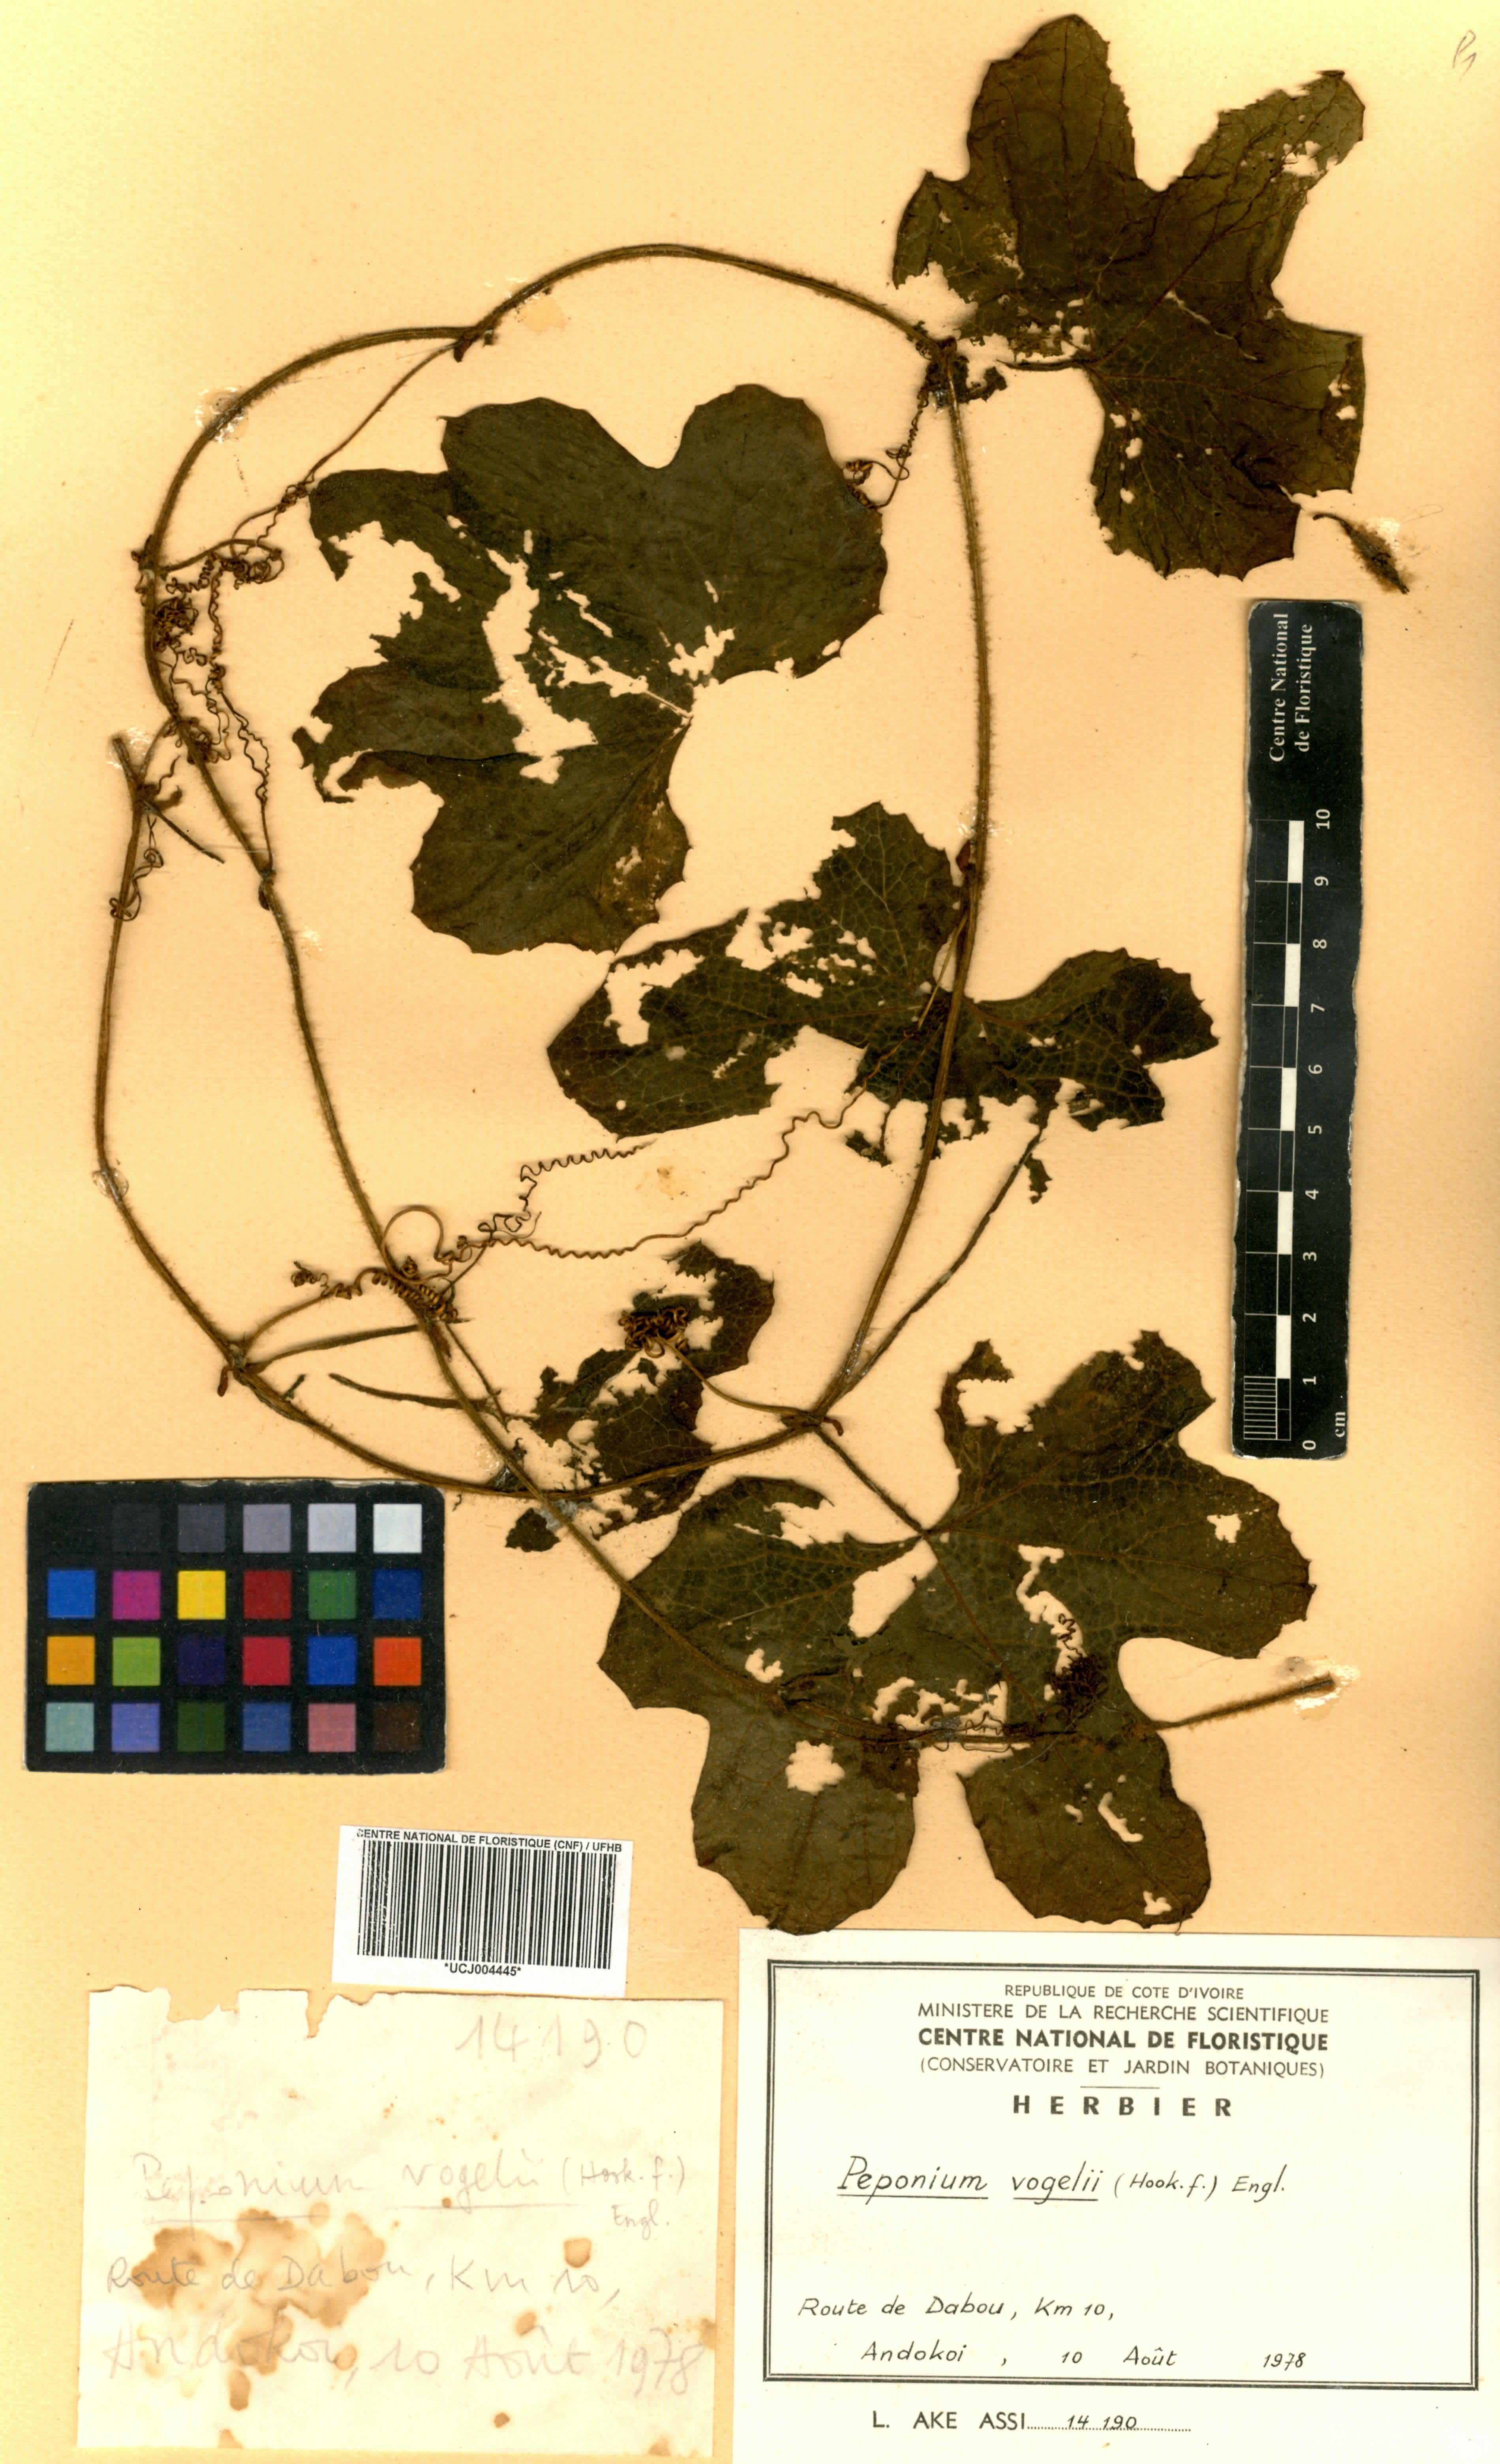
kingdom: Plantae
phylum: Tracheophyta
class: Magnoliopsida
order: Cucurbitales
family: Cucurbitaceae
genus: Peponium
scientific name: Peponium vogelii
